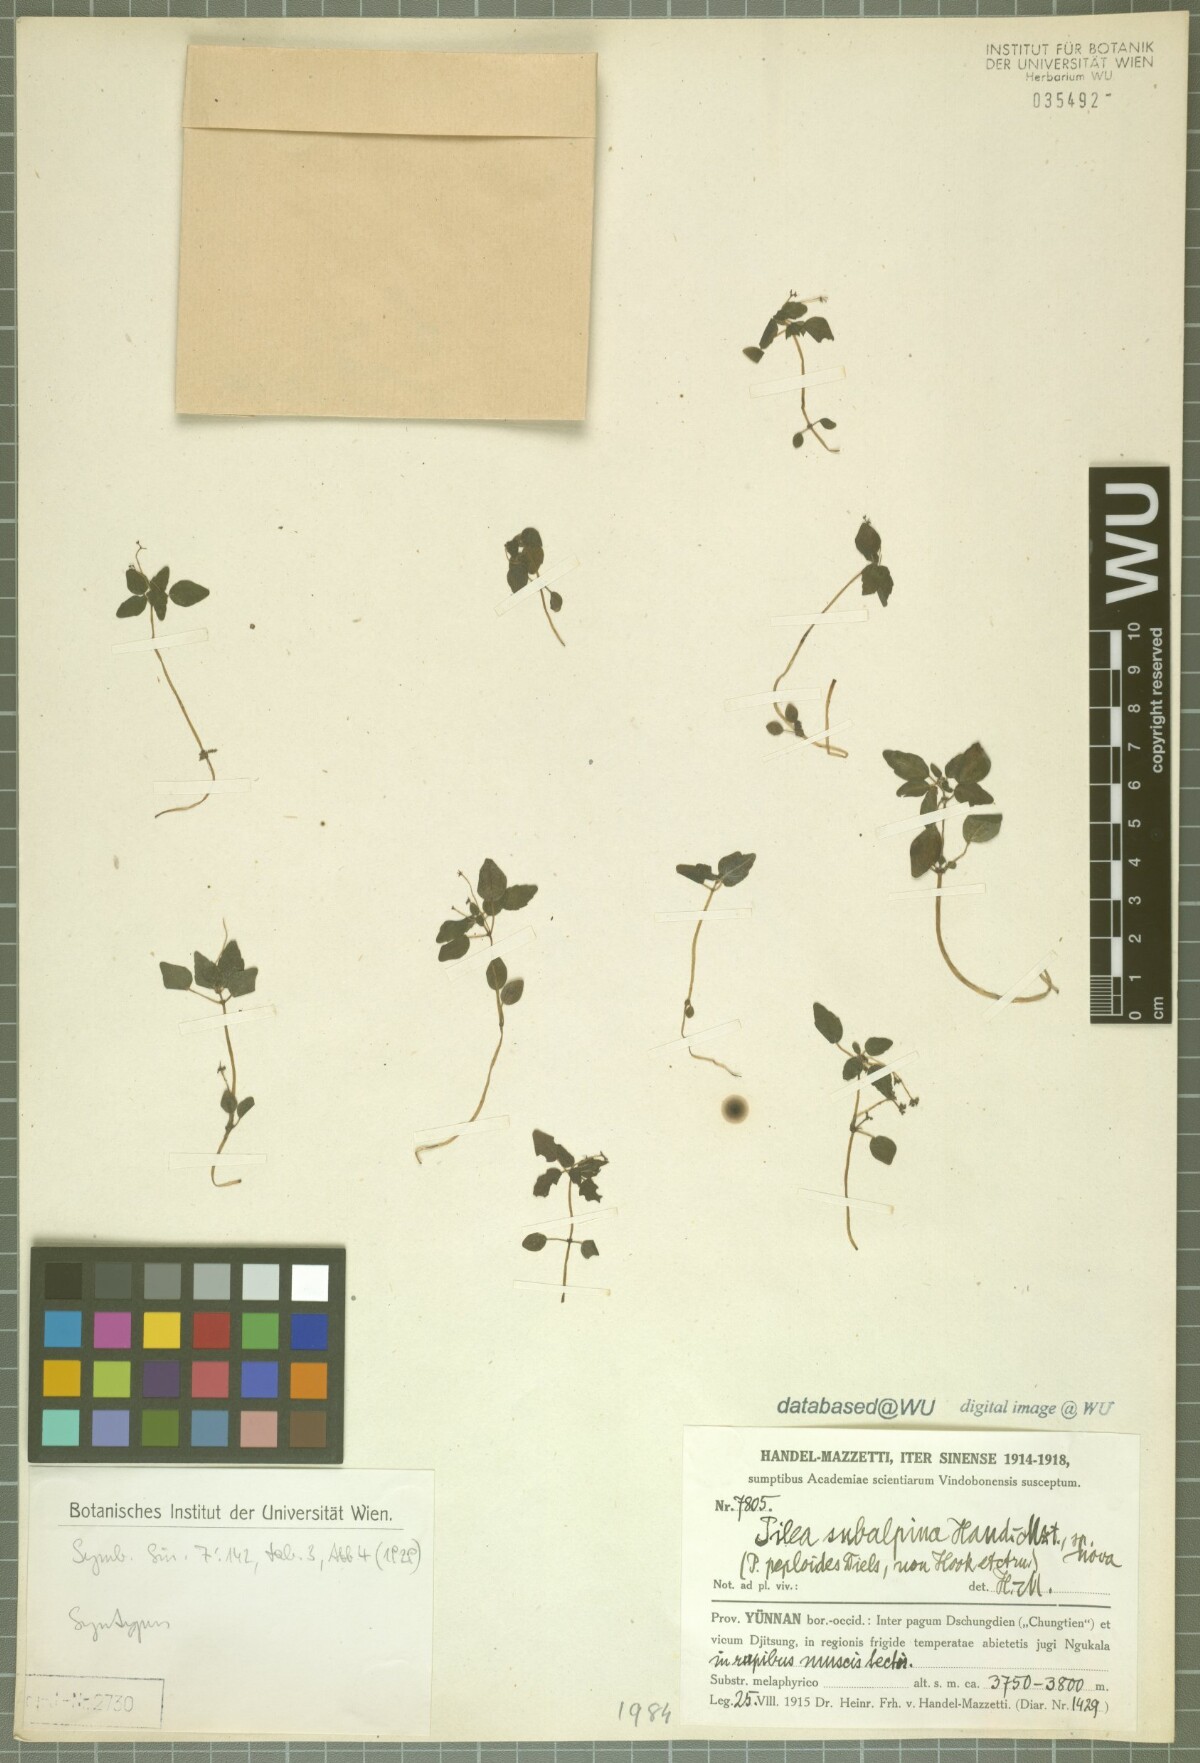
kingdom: Plantae
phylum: Tracheophyta
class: Magnoliopsida
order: Rosales
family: Urticaceae
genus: Pilea
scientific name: Pilea racemosa
